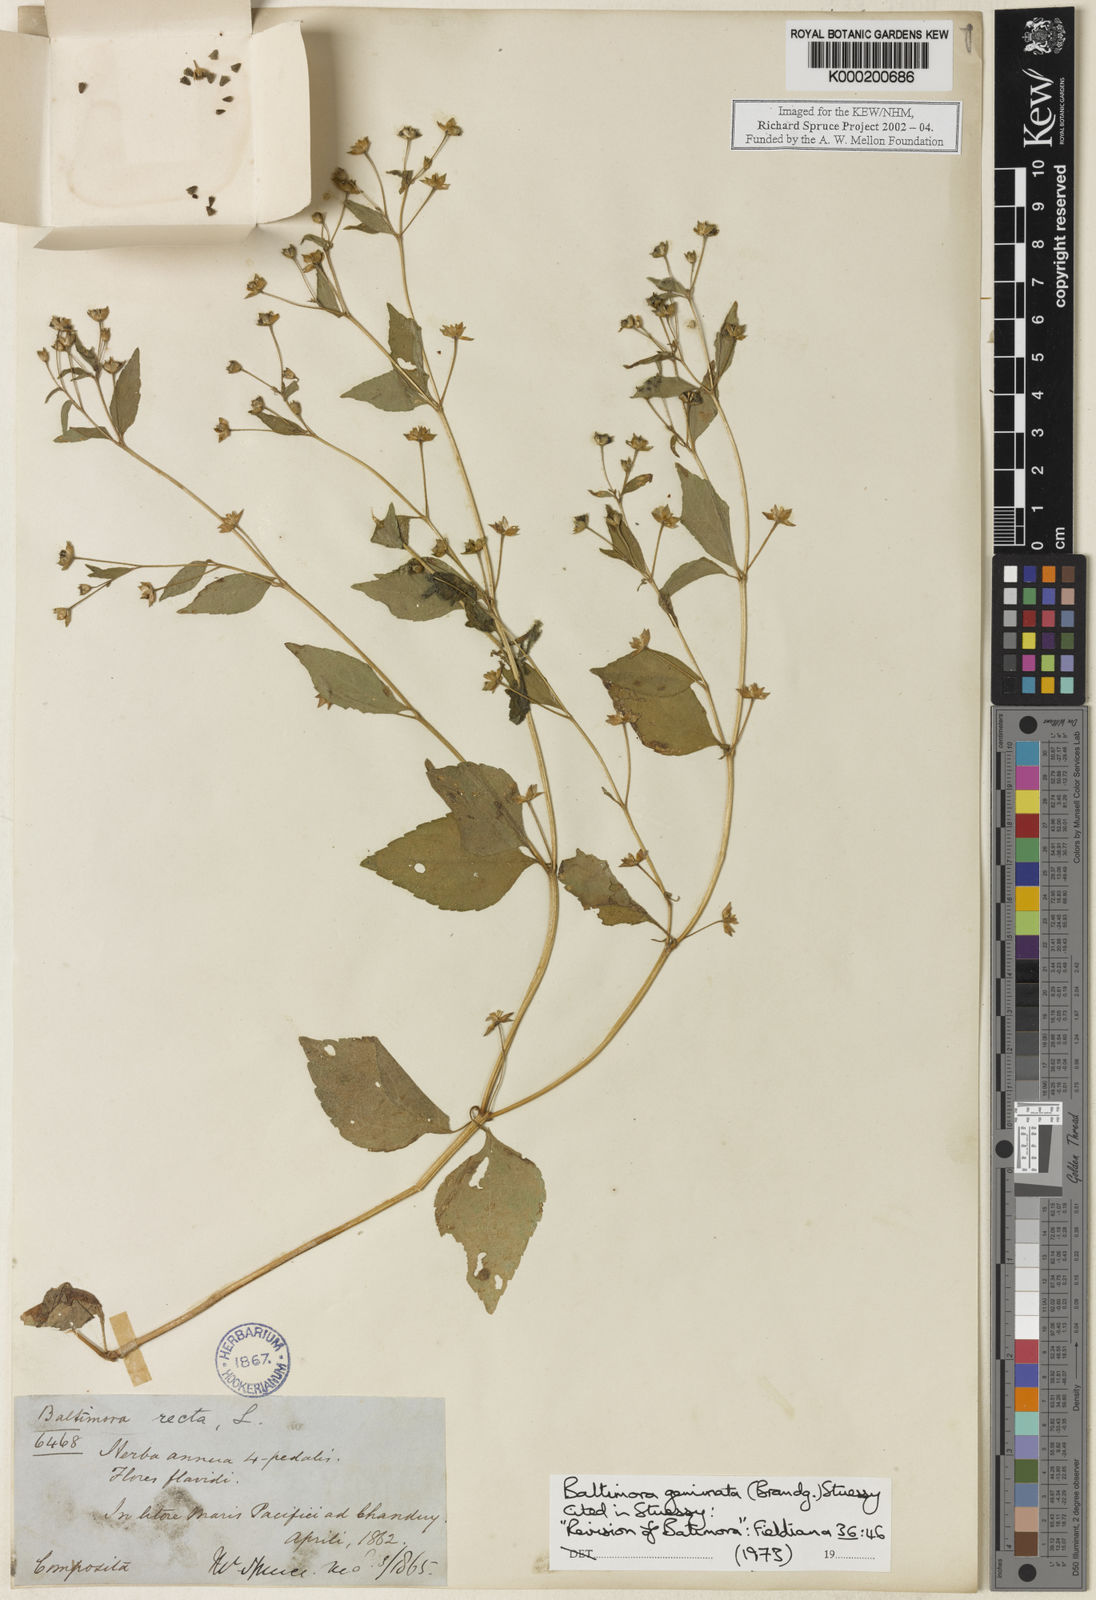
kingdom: Plantae
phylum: Tracheophyta
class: Magnoliopsida
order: Asterales
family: Asteraceae
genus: Baltimora
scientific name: Baltimora geminata
